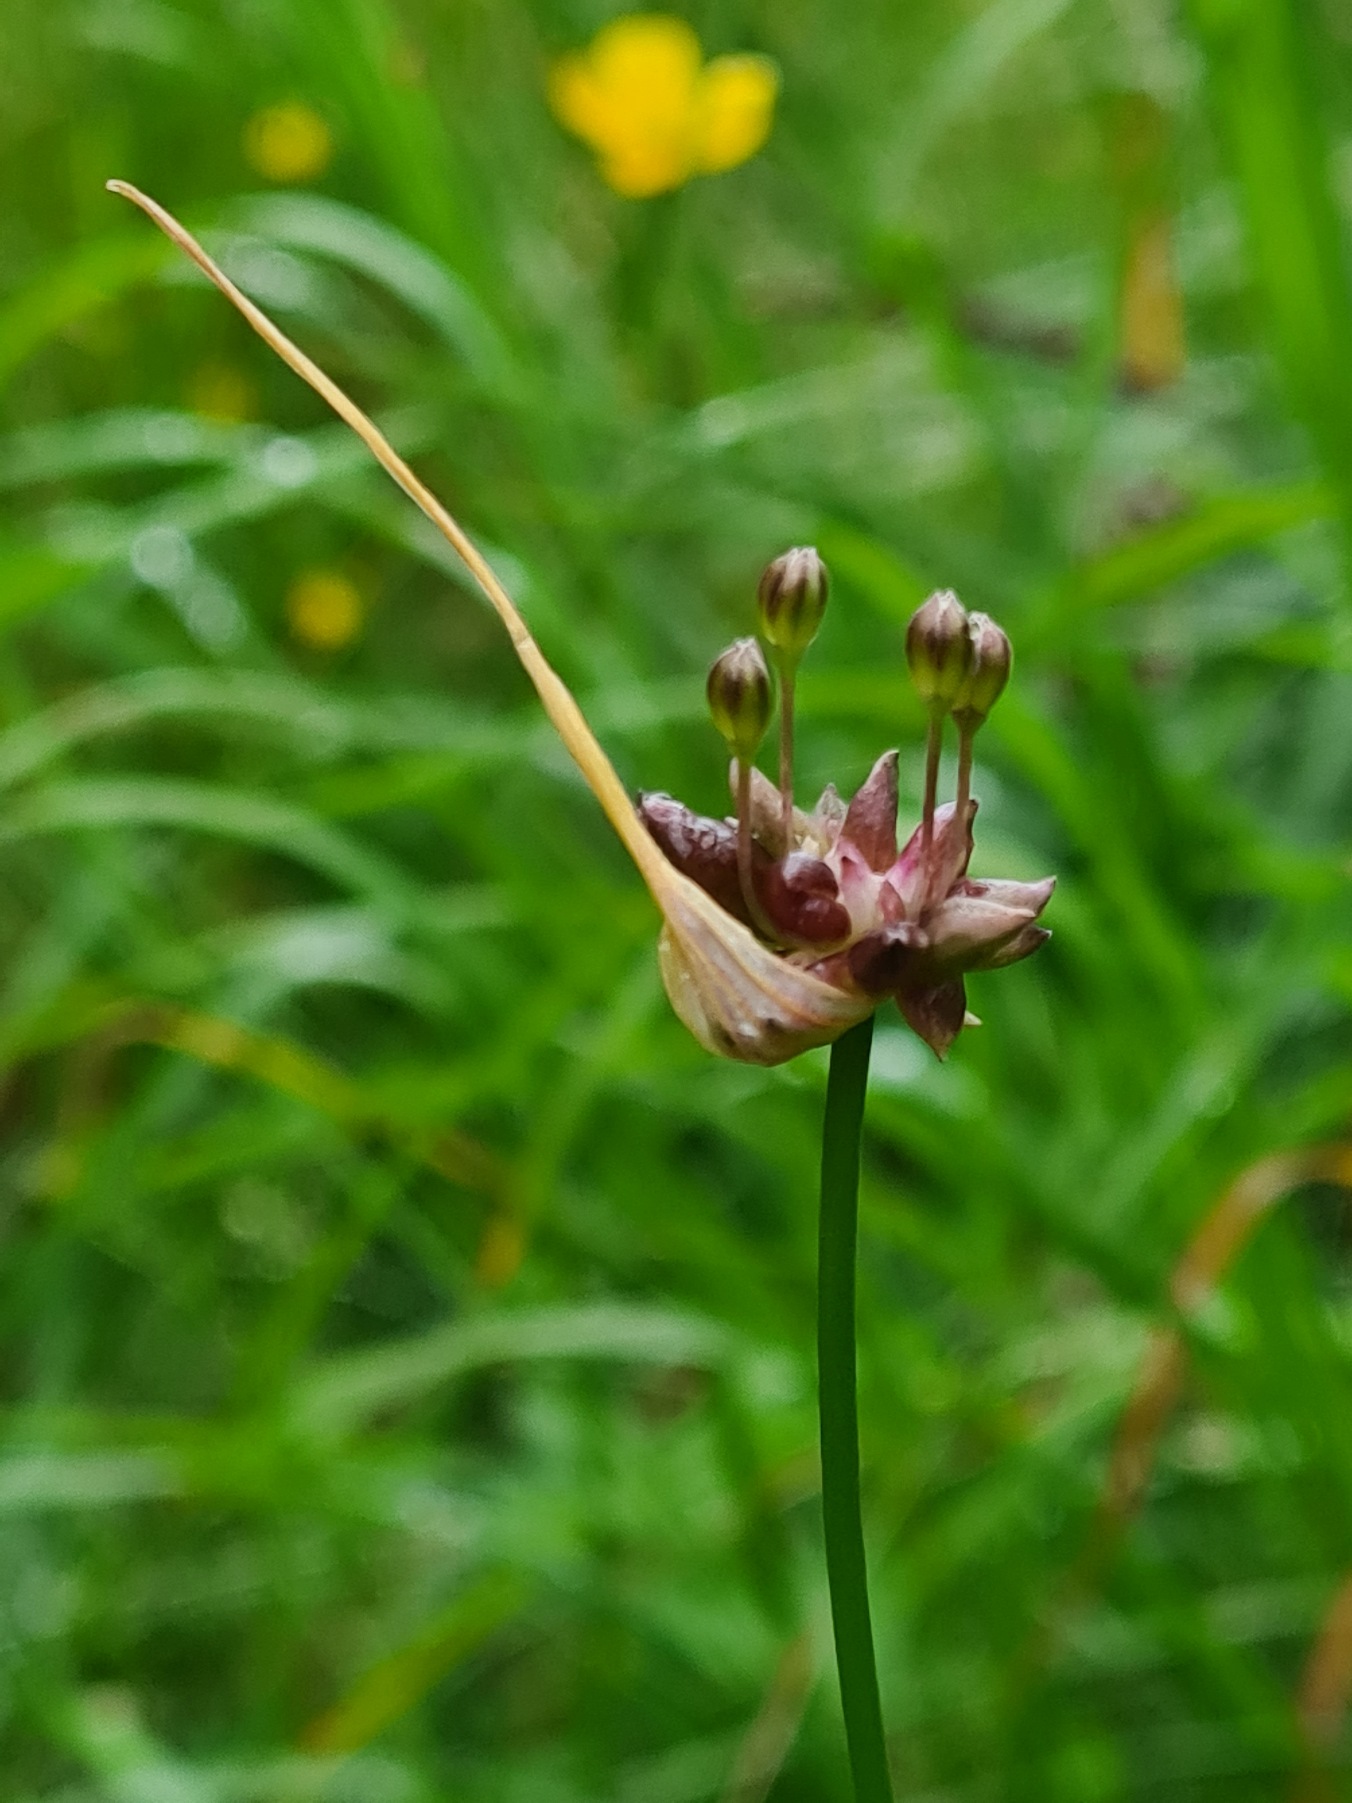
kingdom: Plantae
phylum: Tracheophyta
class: Liliopsida
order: Asparagales
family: Amaryllidaceae
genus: Allium
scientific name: Allium oleraceum
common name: Vild løg
